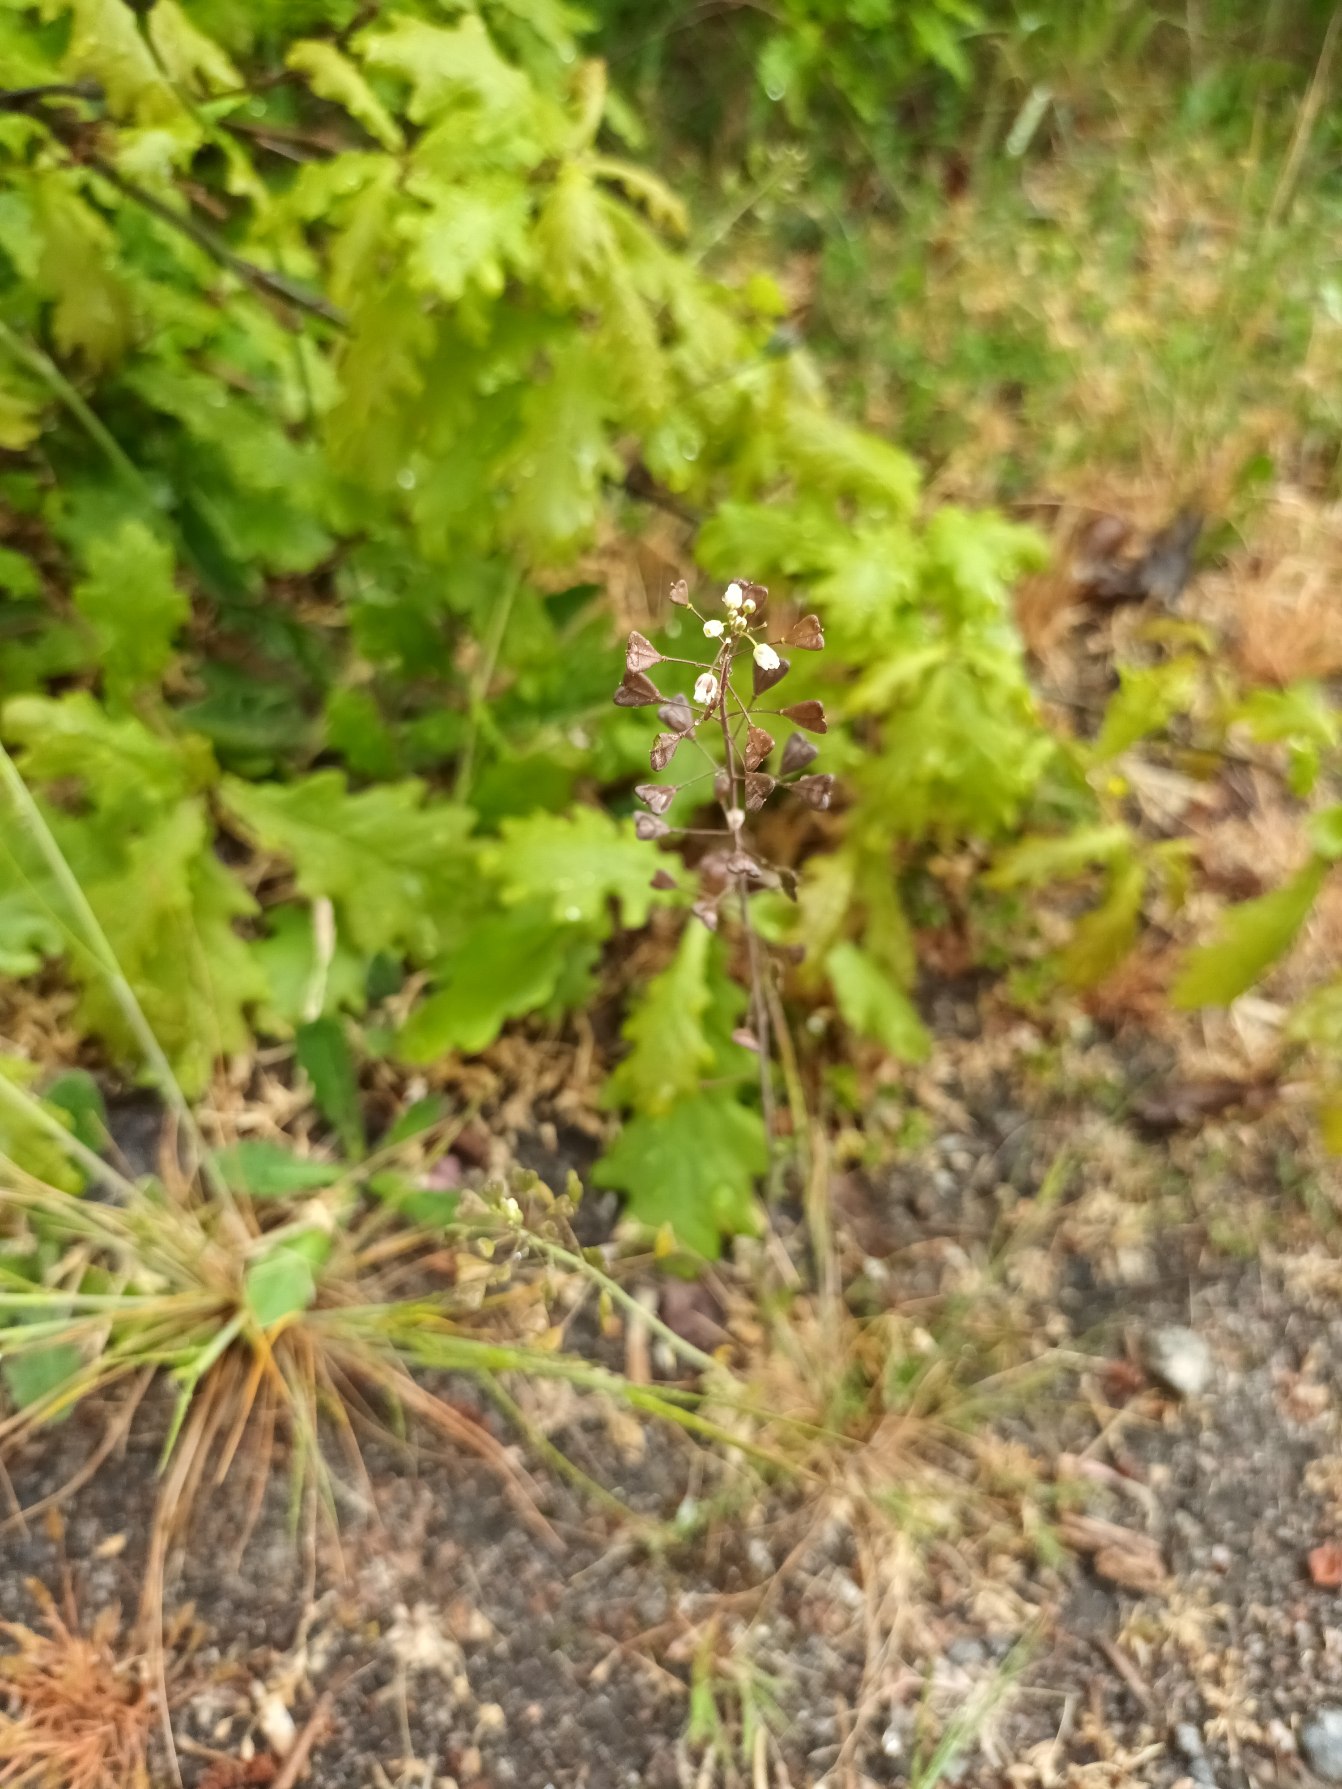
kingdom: Plantae
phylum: Tracheophyta
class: Magnoliopsida
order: Brassicales
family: Brassicaceae
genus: Capsella
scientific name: Capsella bursa-pastoris
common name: Hyrdetaske
